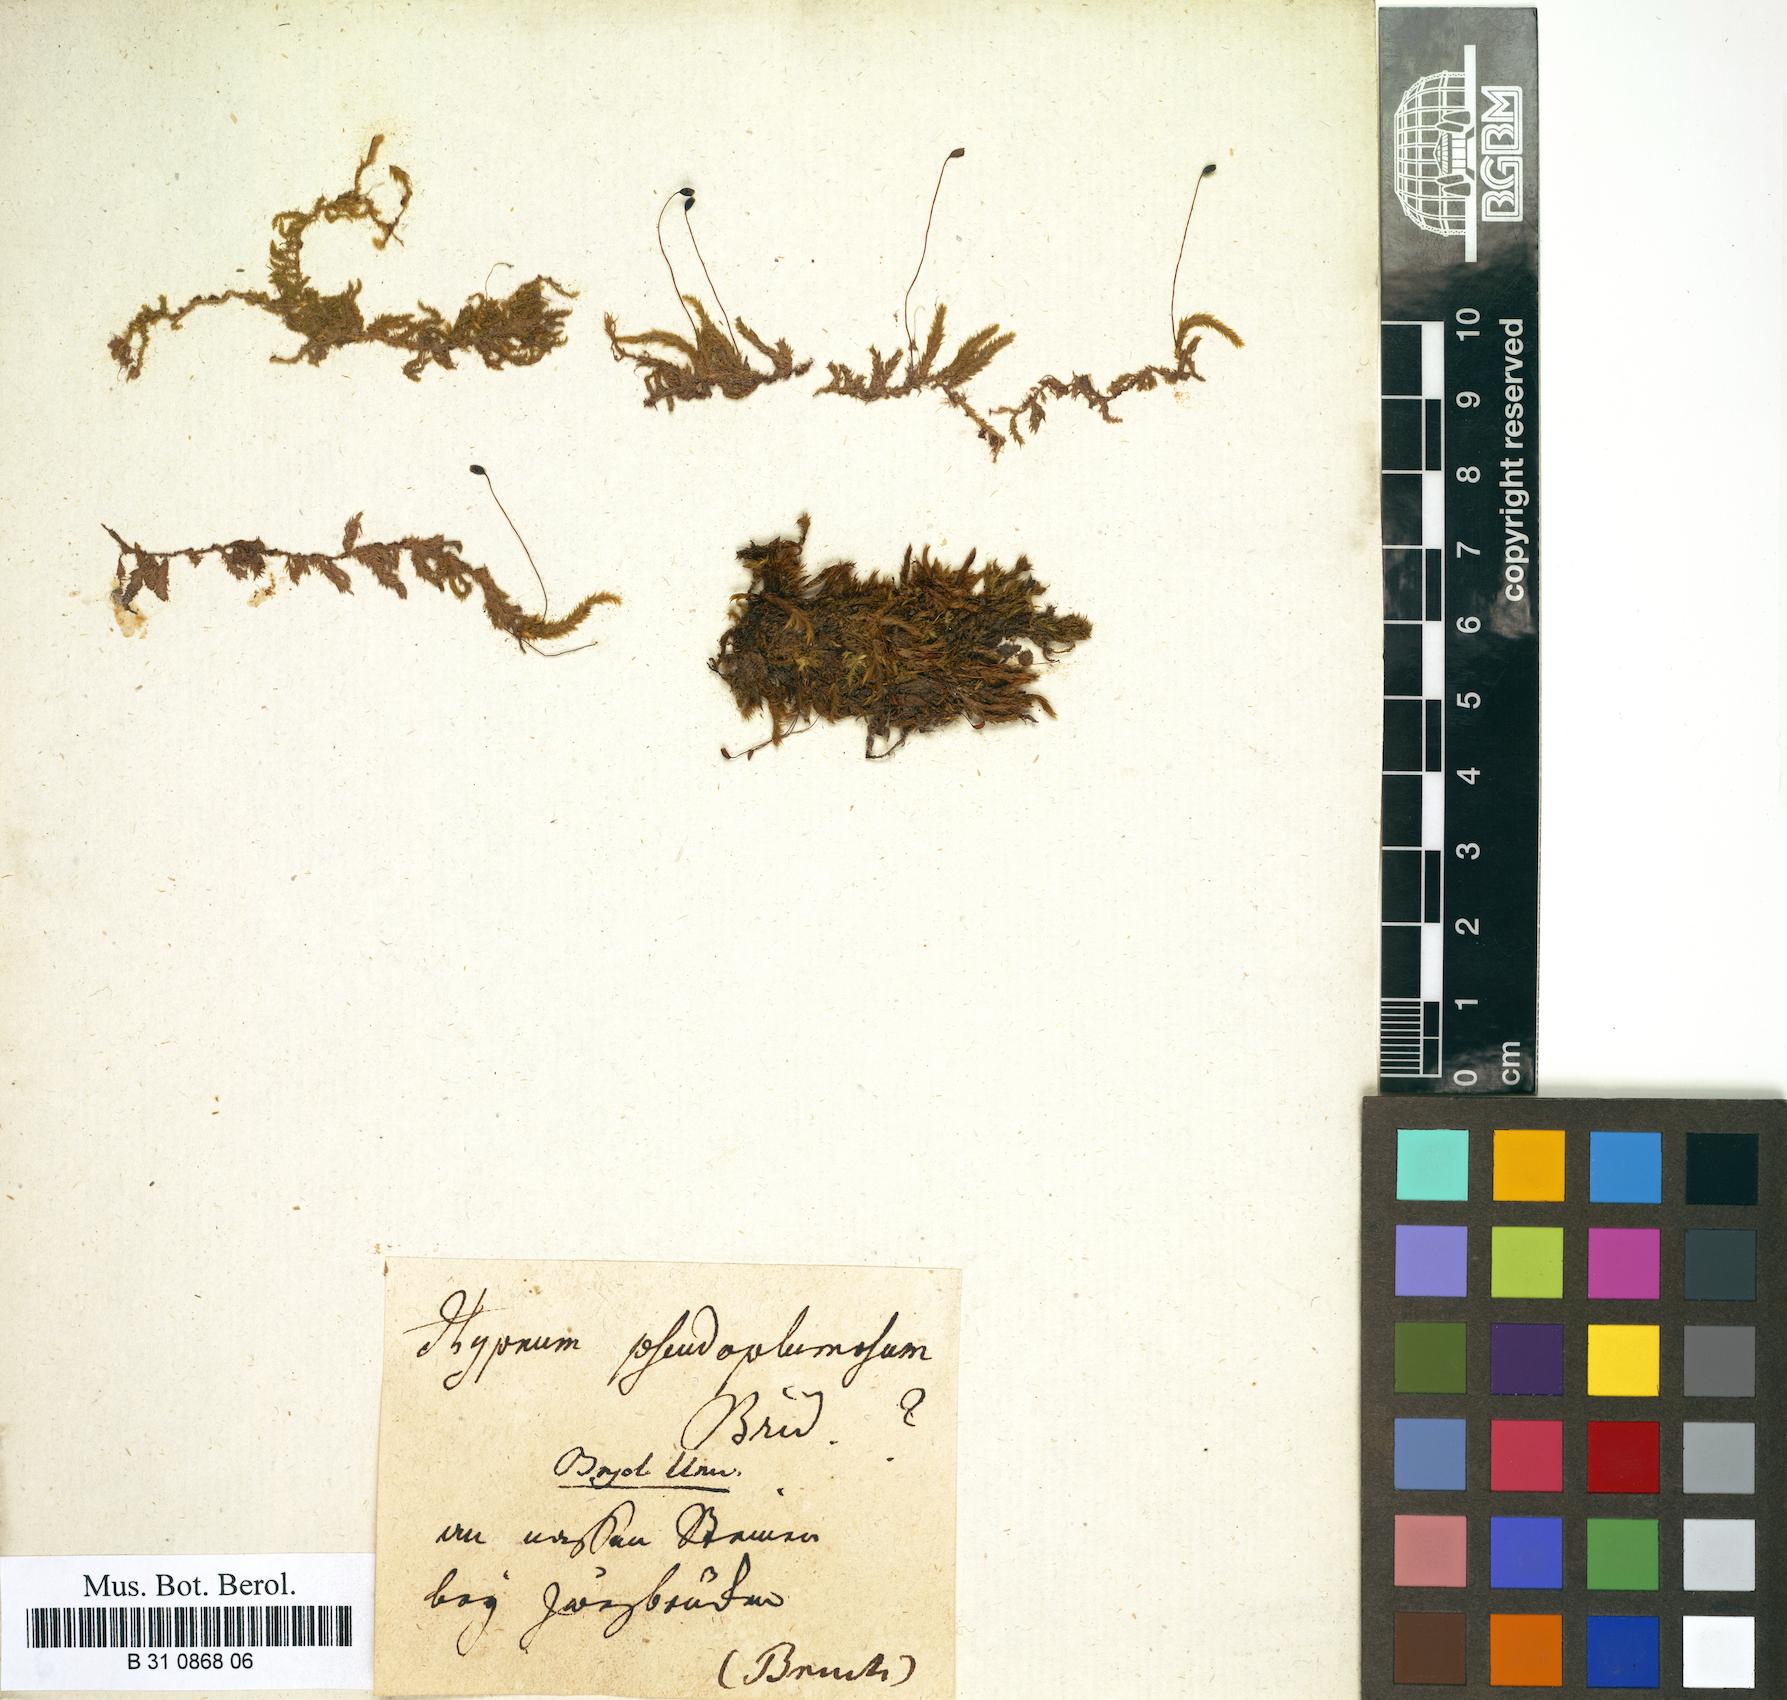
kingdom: Plantae
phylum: Bryophyta
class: Bryopsida
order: Hypnales
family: Brachytheciaceae
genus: Sciuro-hypnum
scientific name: Sciuro-hypnum plumosum
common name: Rusty feather-moss
